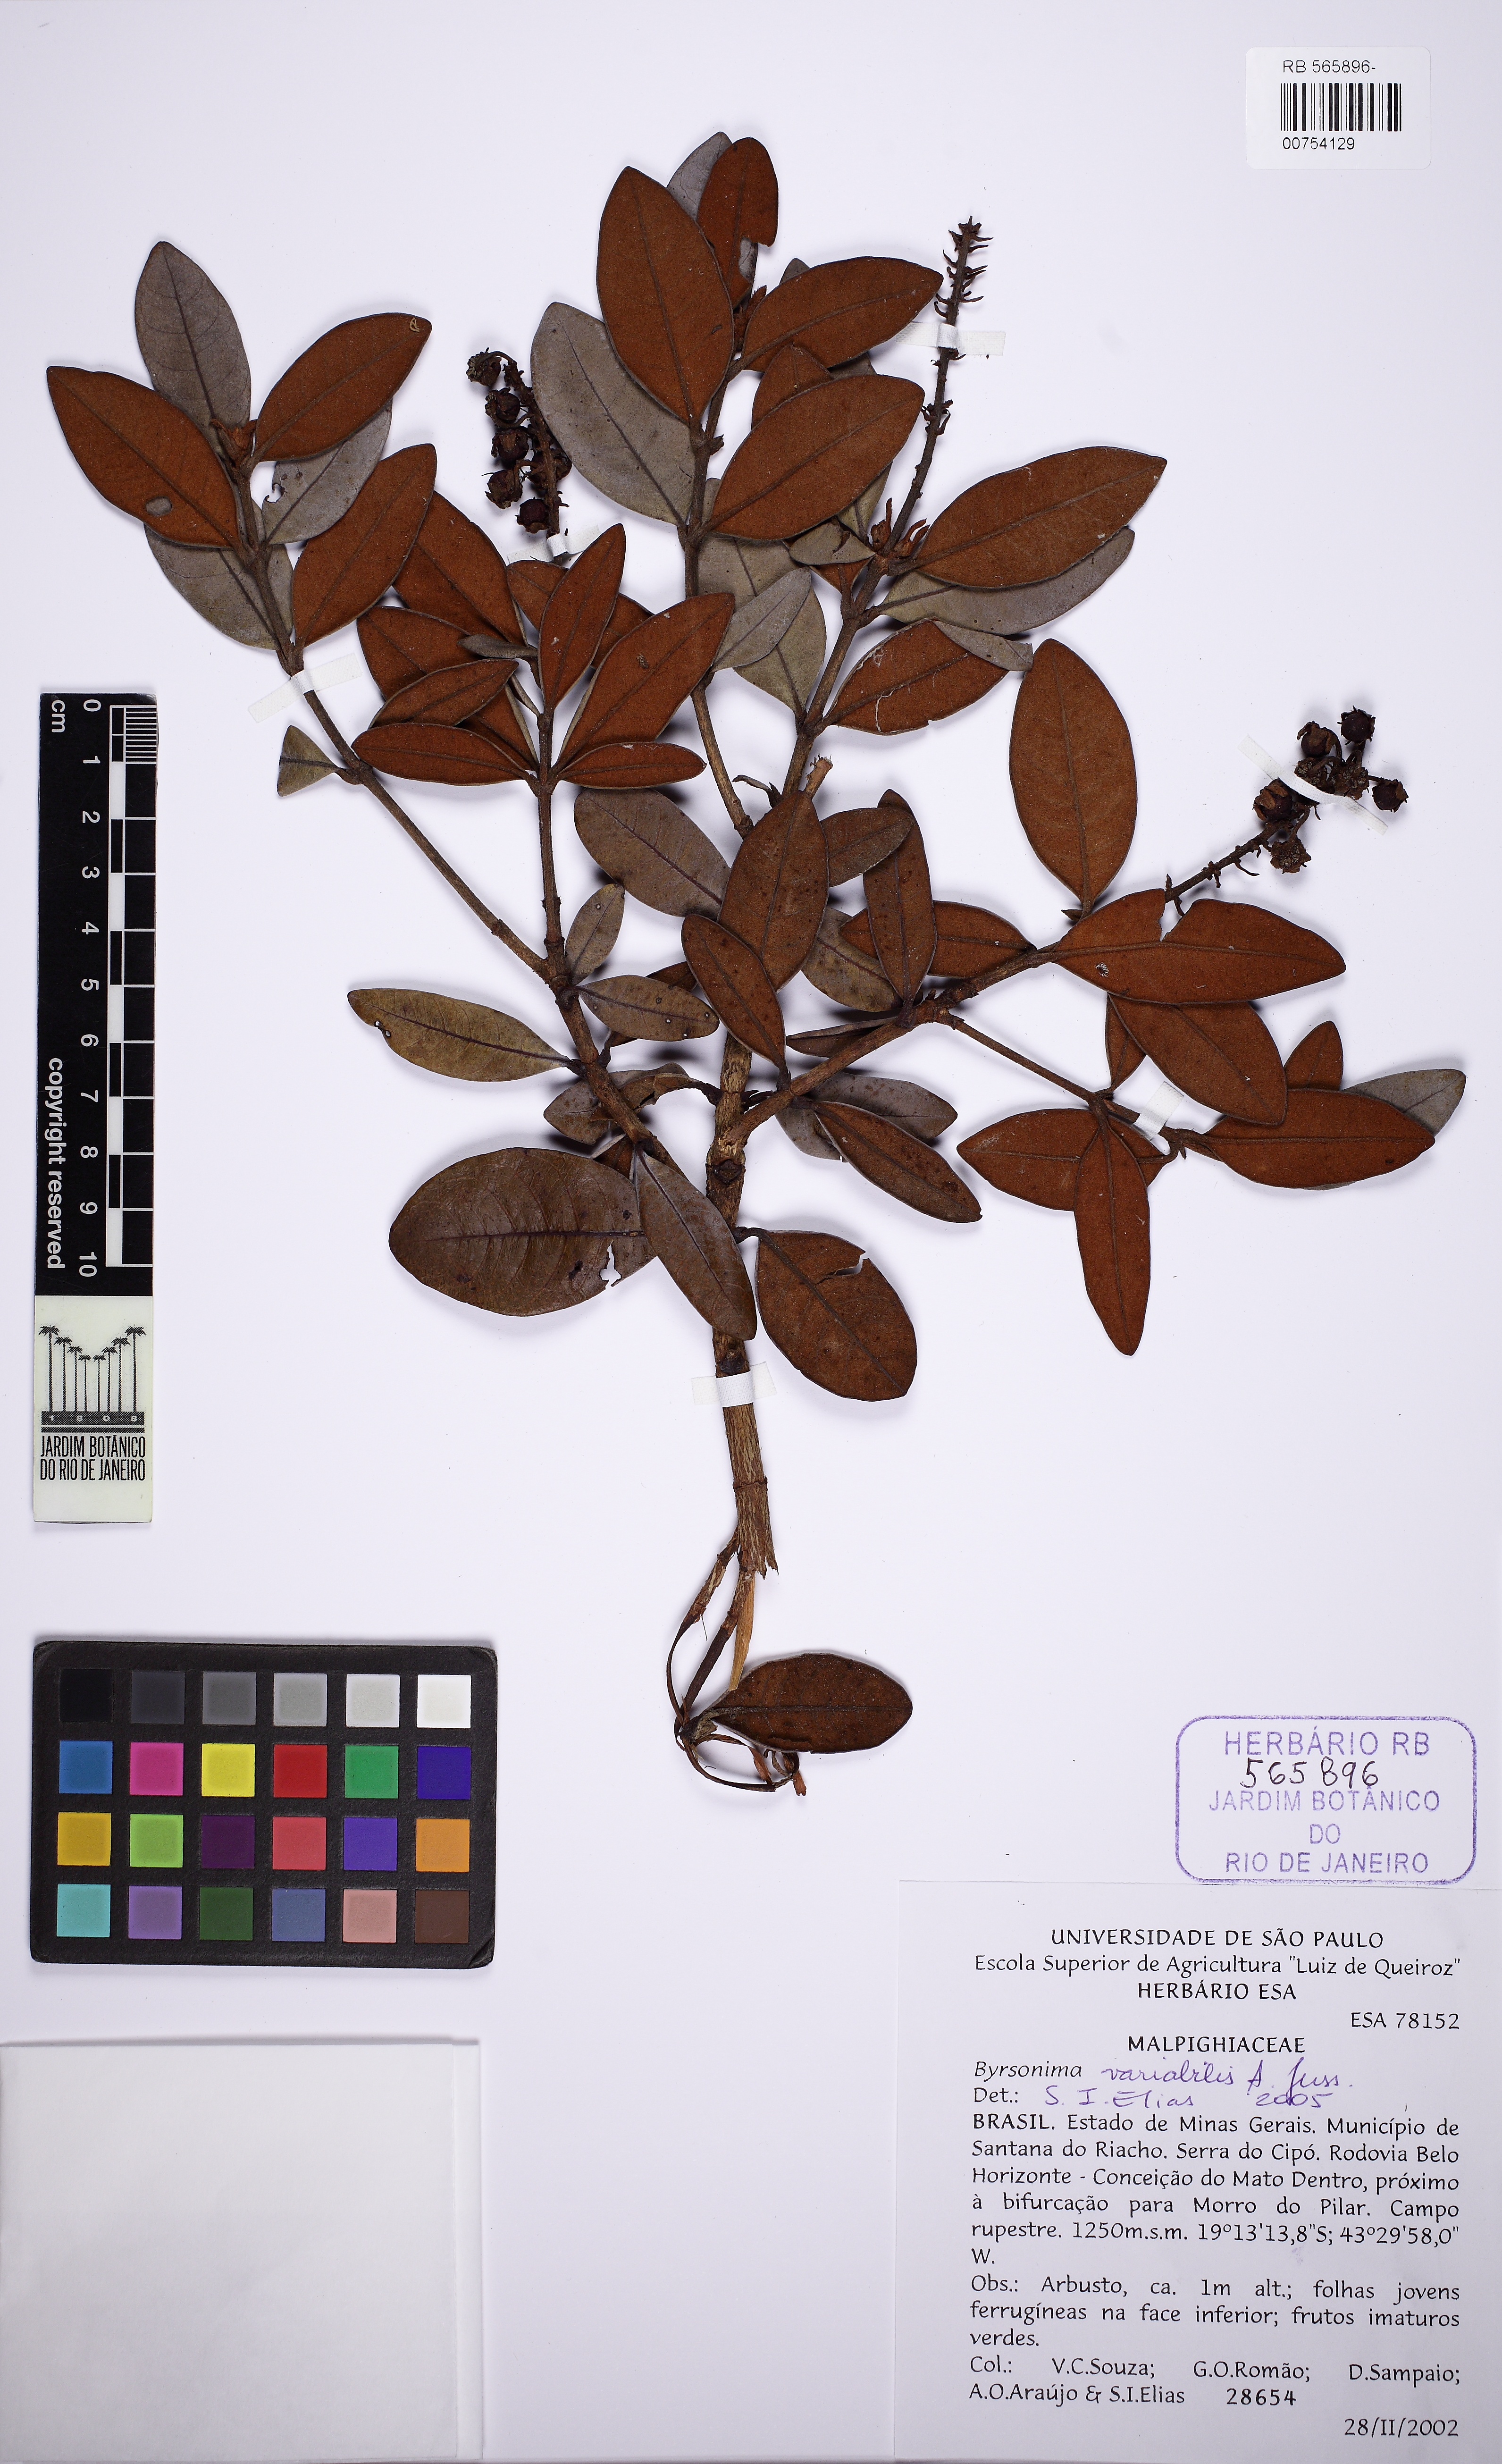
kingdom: Plantae
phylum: Tracheophyta
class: Magnoliopsida
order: Malpighiales
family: Malpighiaceae
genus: Byrsonima
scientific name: Byrsonima variabilis
